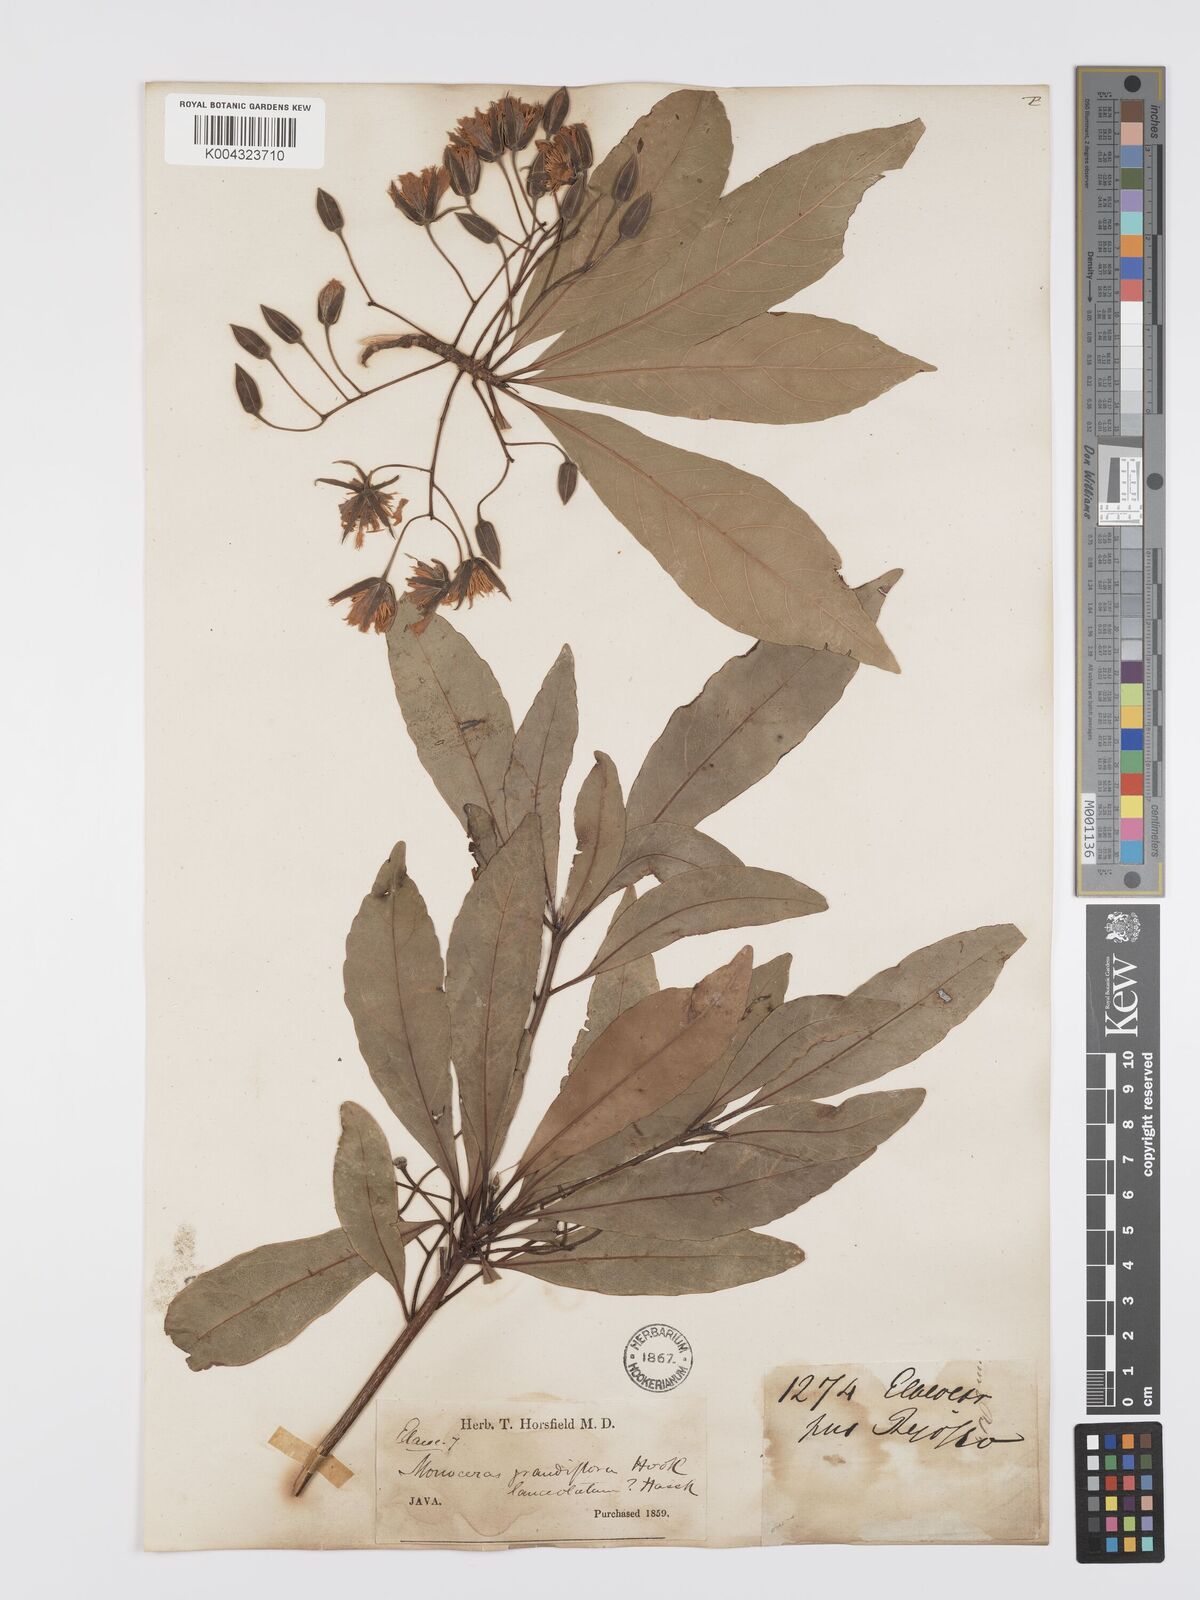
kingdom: Plantae
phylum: Tracheophyta
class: Magnoliopsida
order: Oxalidales
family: Elaeocarpaceae
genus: Elaeocarpus
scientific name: Elaeocarpus grandiflorus
